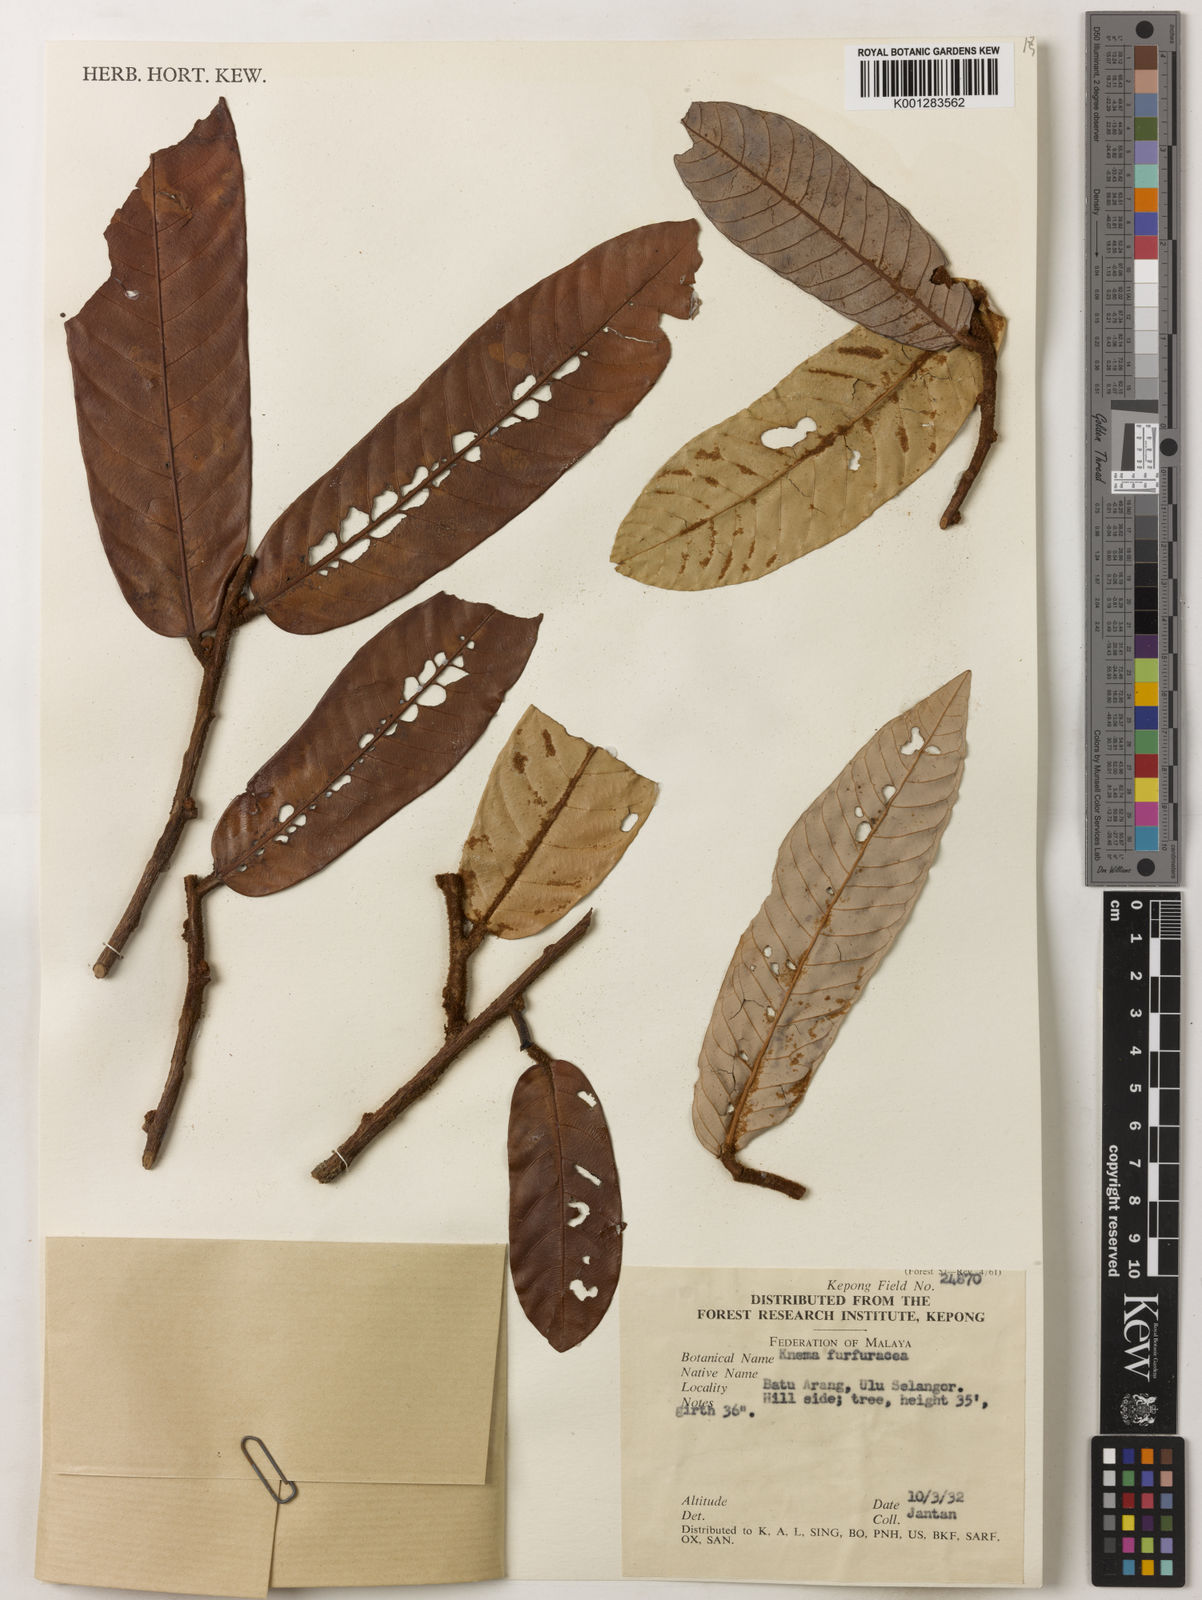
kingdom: Plantae
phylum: Tracheophyta
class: Magnoliopsida
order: Magnoliales
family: Myristicaceae
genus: Knema
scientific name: Knema furfuracea
